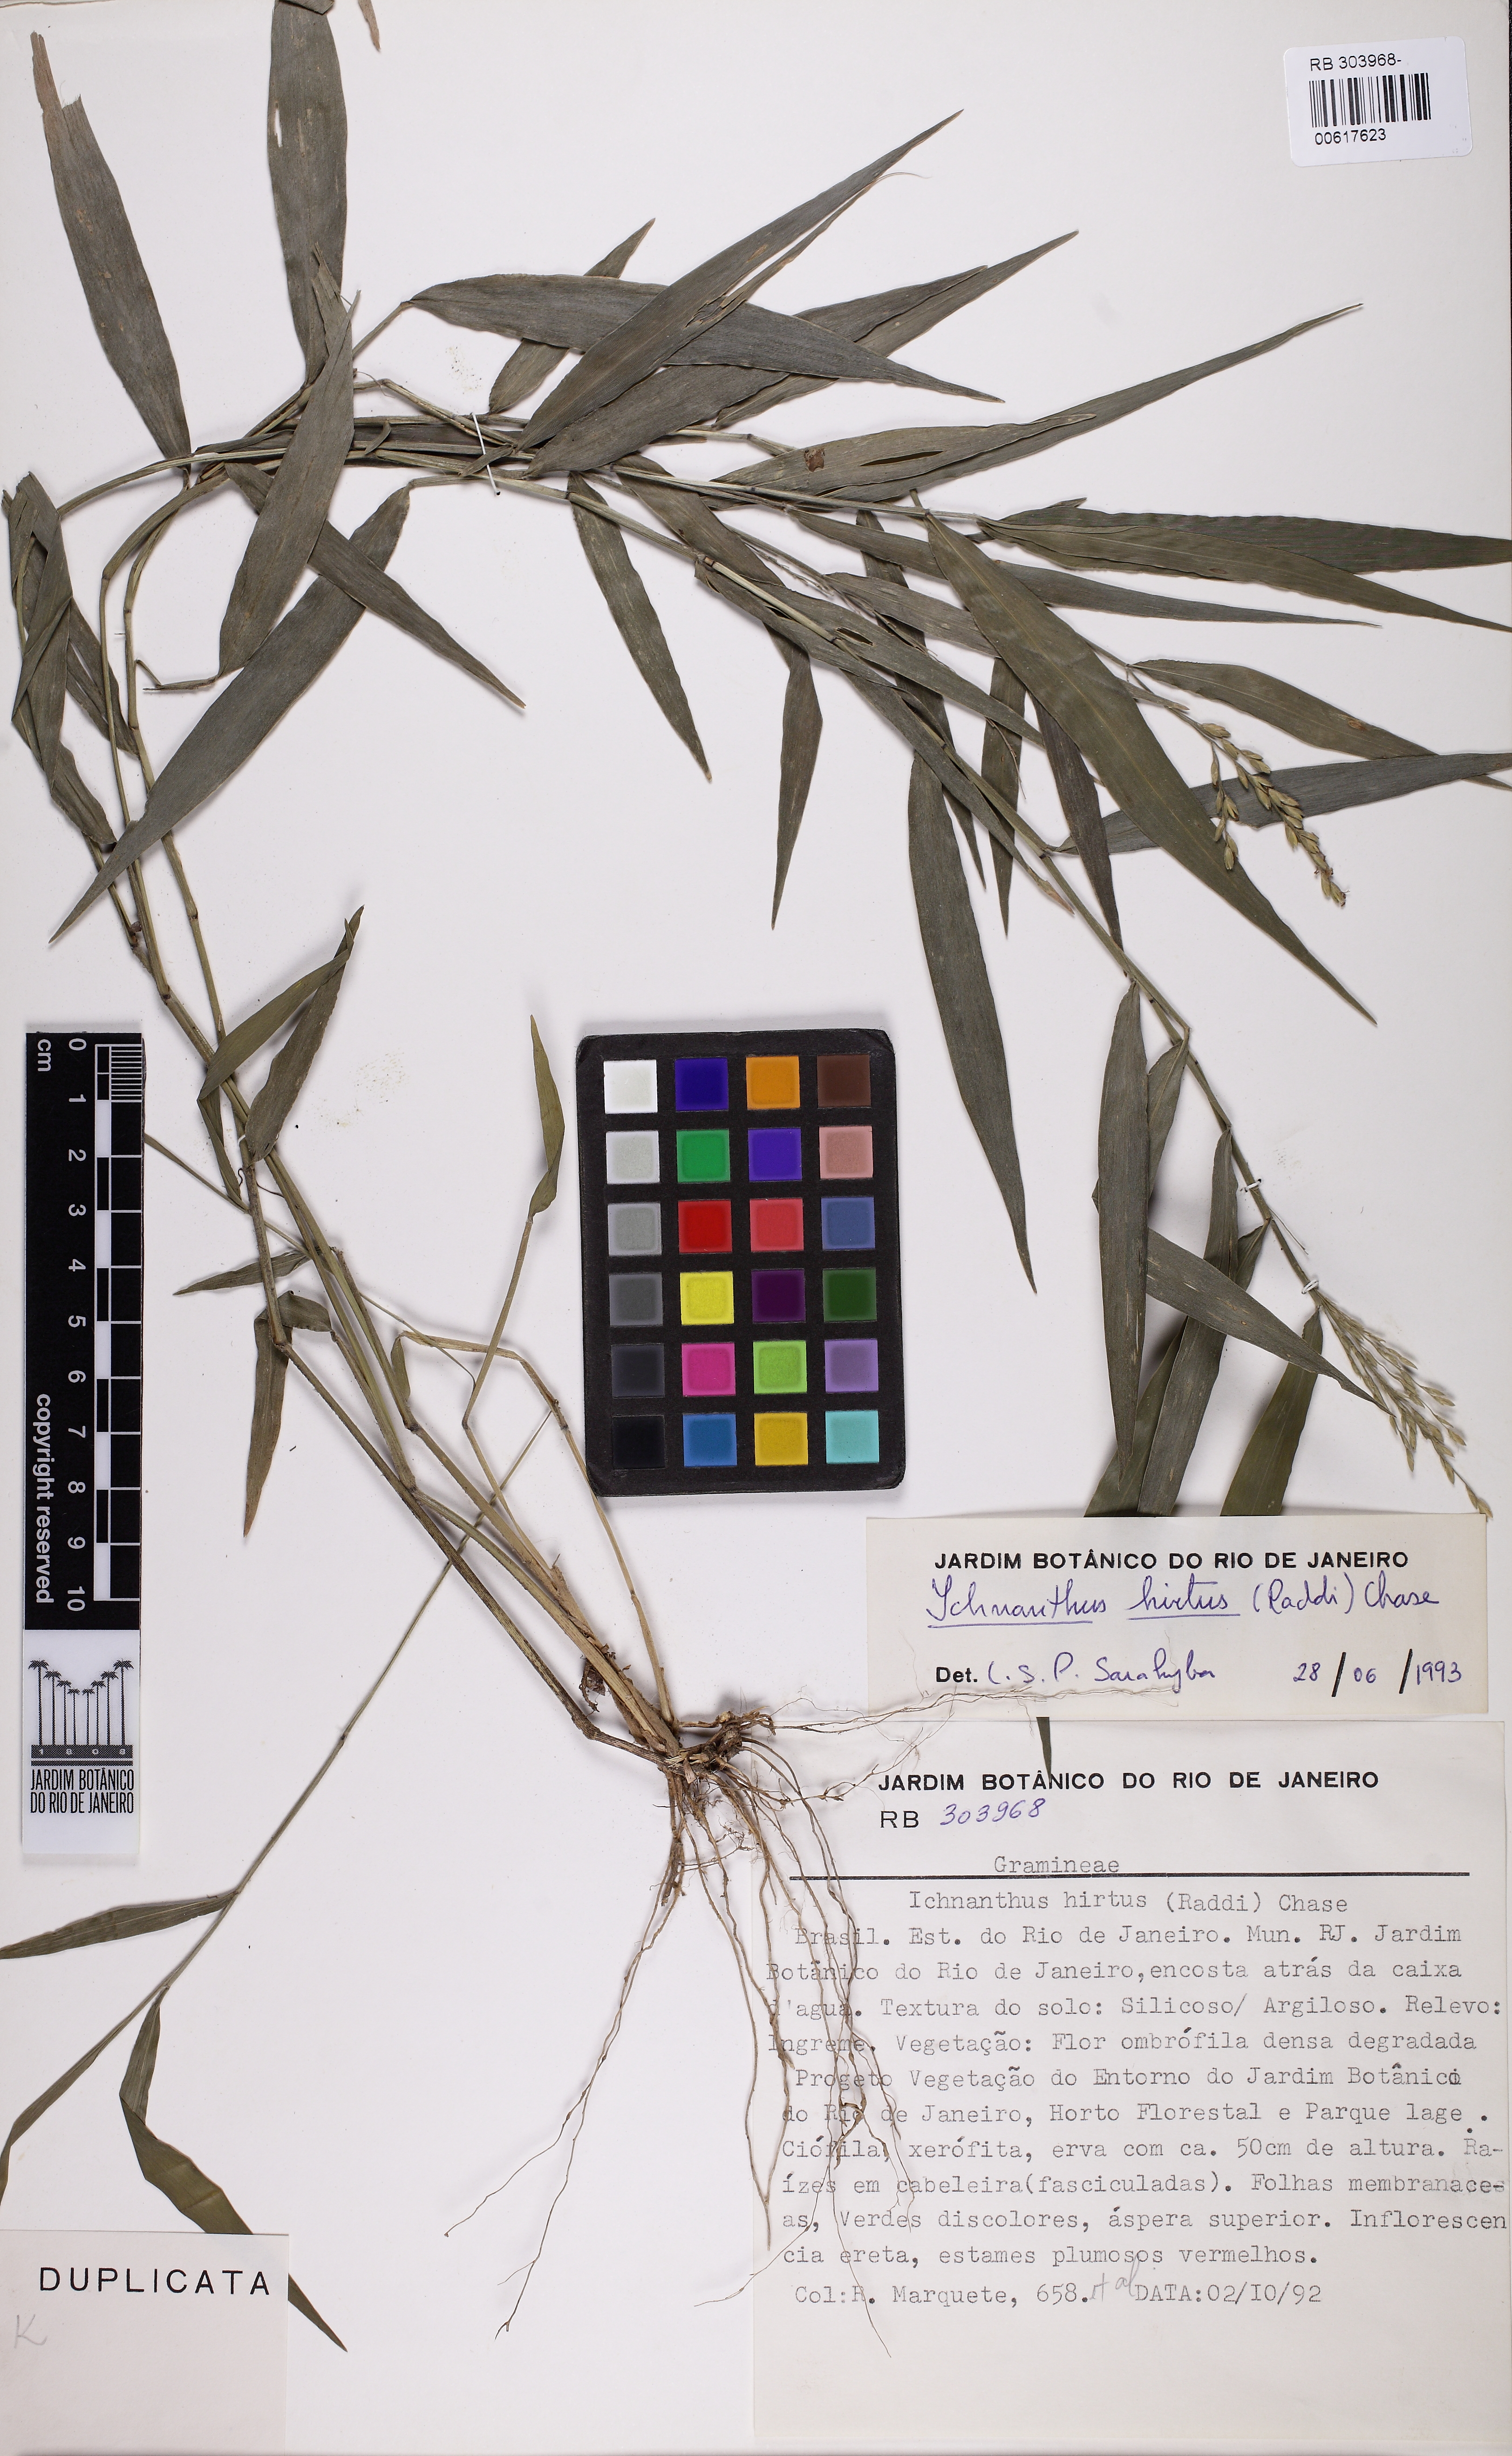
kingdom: Plantae
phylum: Tracheophyta
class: Liliopsida
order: Poales
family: Poaceae
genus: Ichnanthus
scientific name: Ichnanthus hirtus
